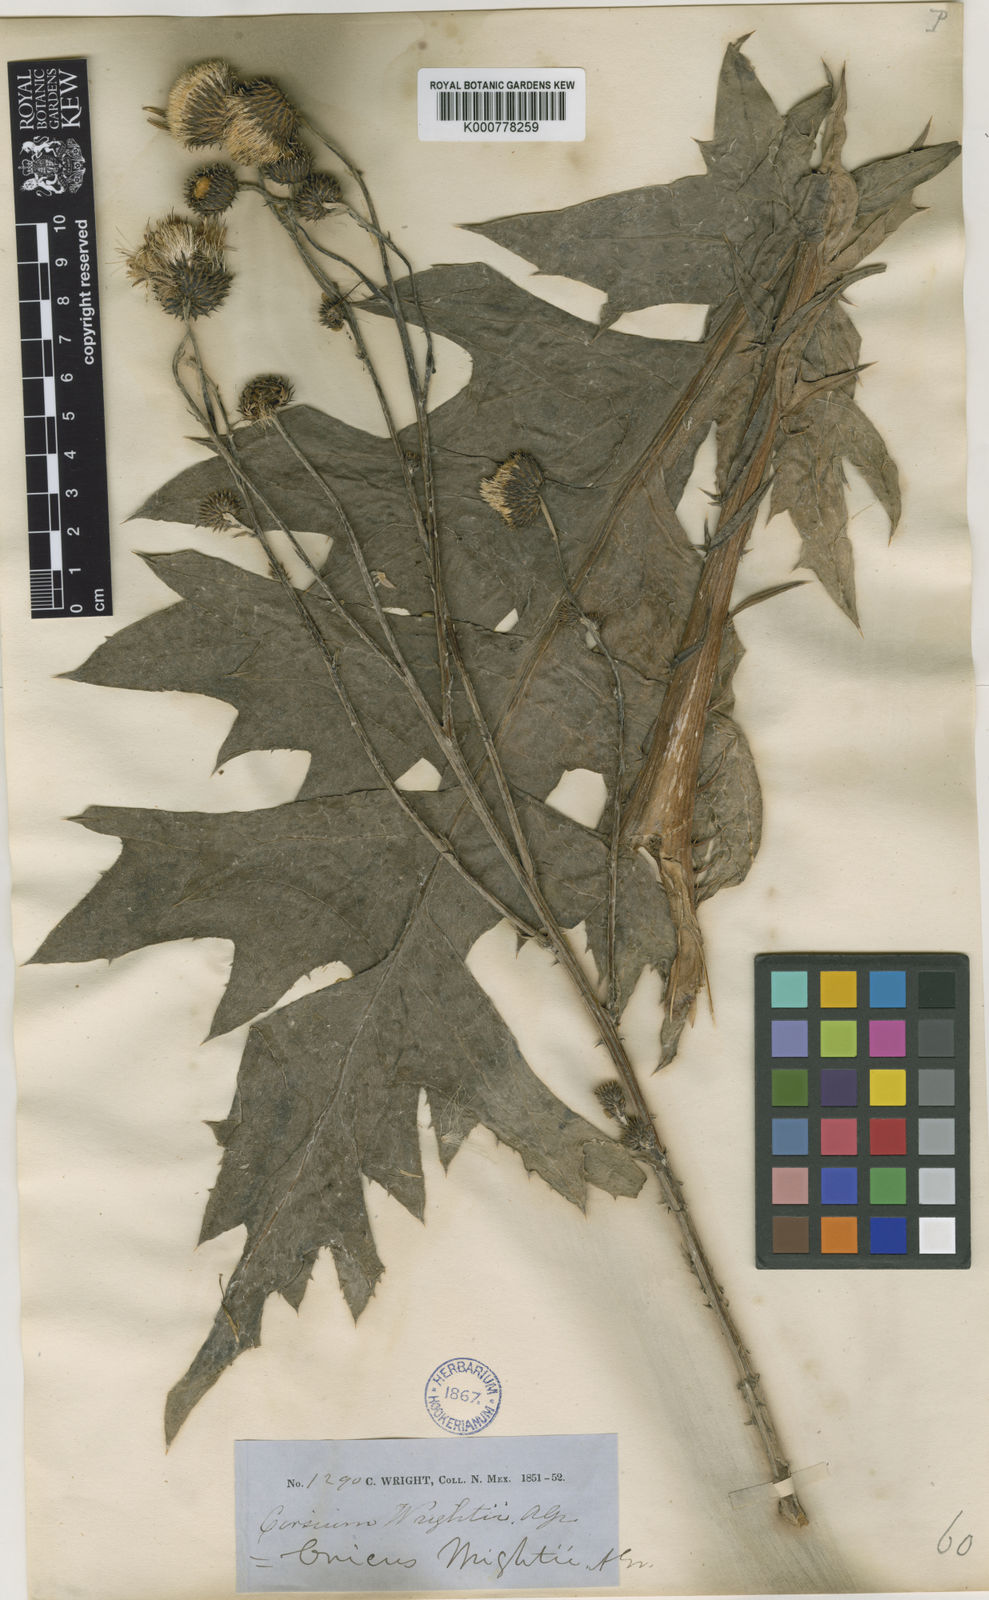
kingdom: Plantae
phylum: Tracheophyta
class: Magnoliopsida
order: Asterales
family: Asteraceae
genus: Cirsium
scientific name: Cirsium wrightii
